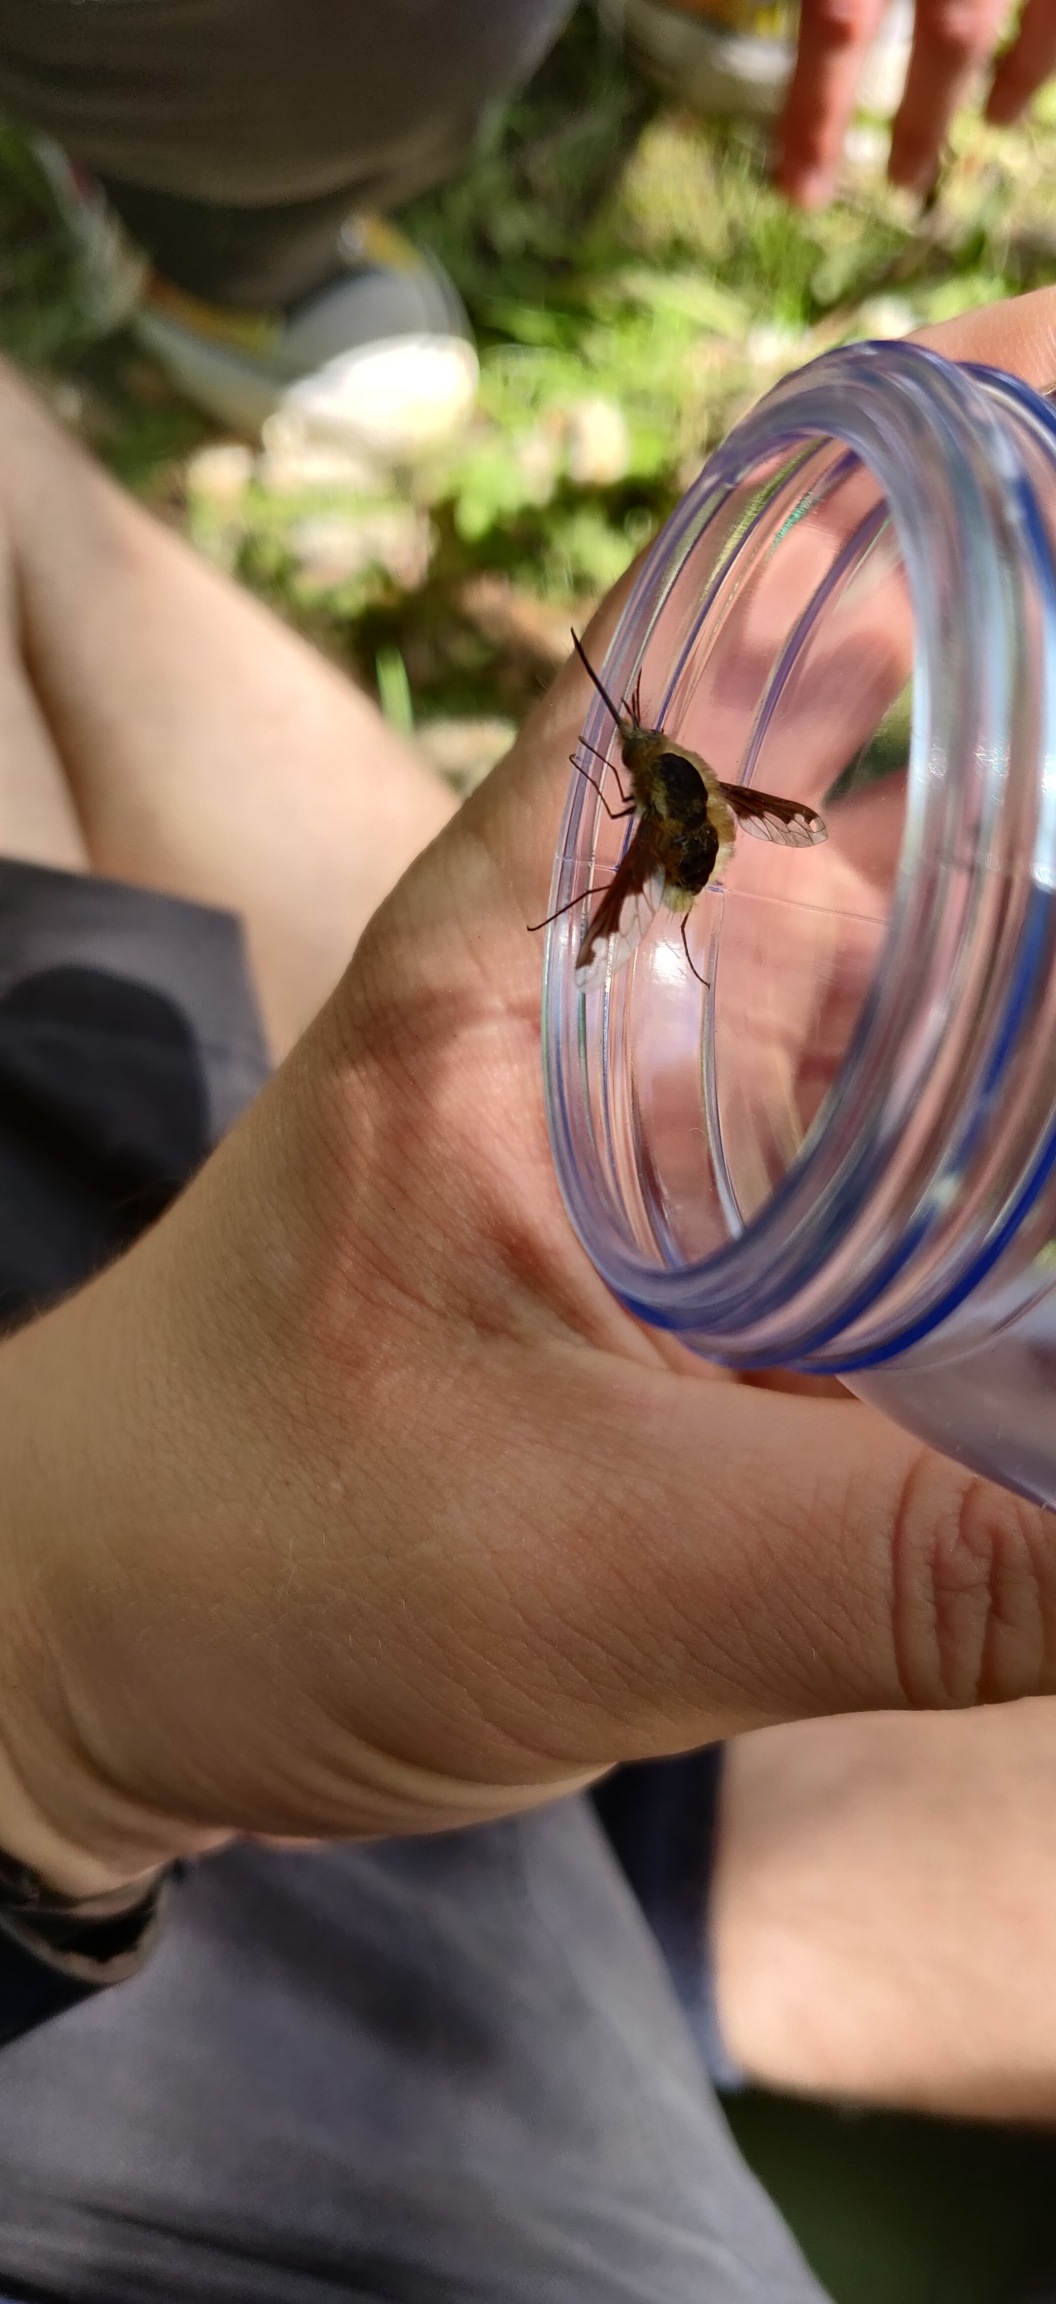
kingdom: Animalia
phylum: Arthropoda
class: Insecta
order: Diptera
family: Bombyliidae
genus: Bombylius
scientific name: Bombylius major
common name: Stor humleflue
